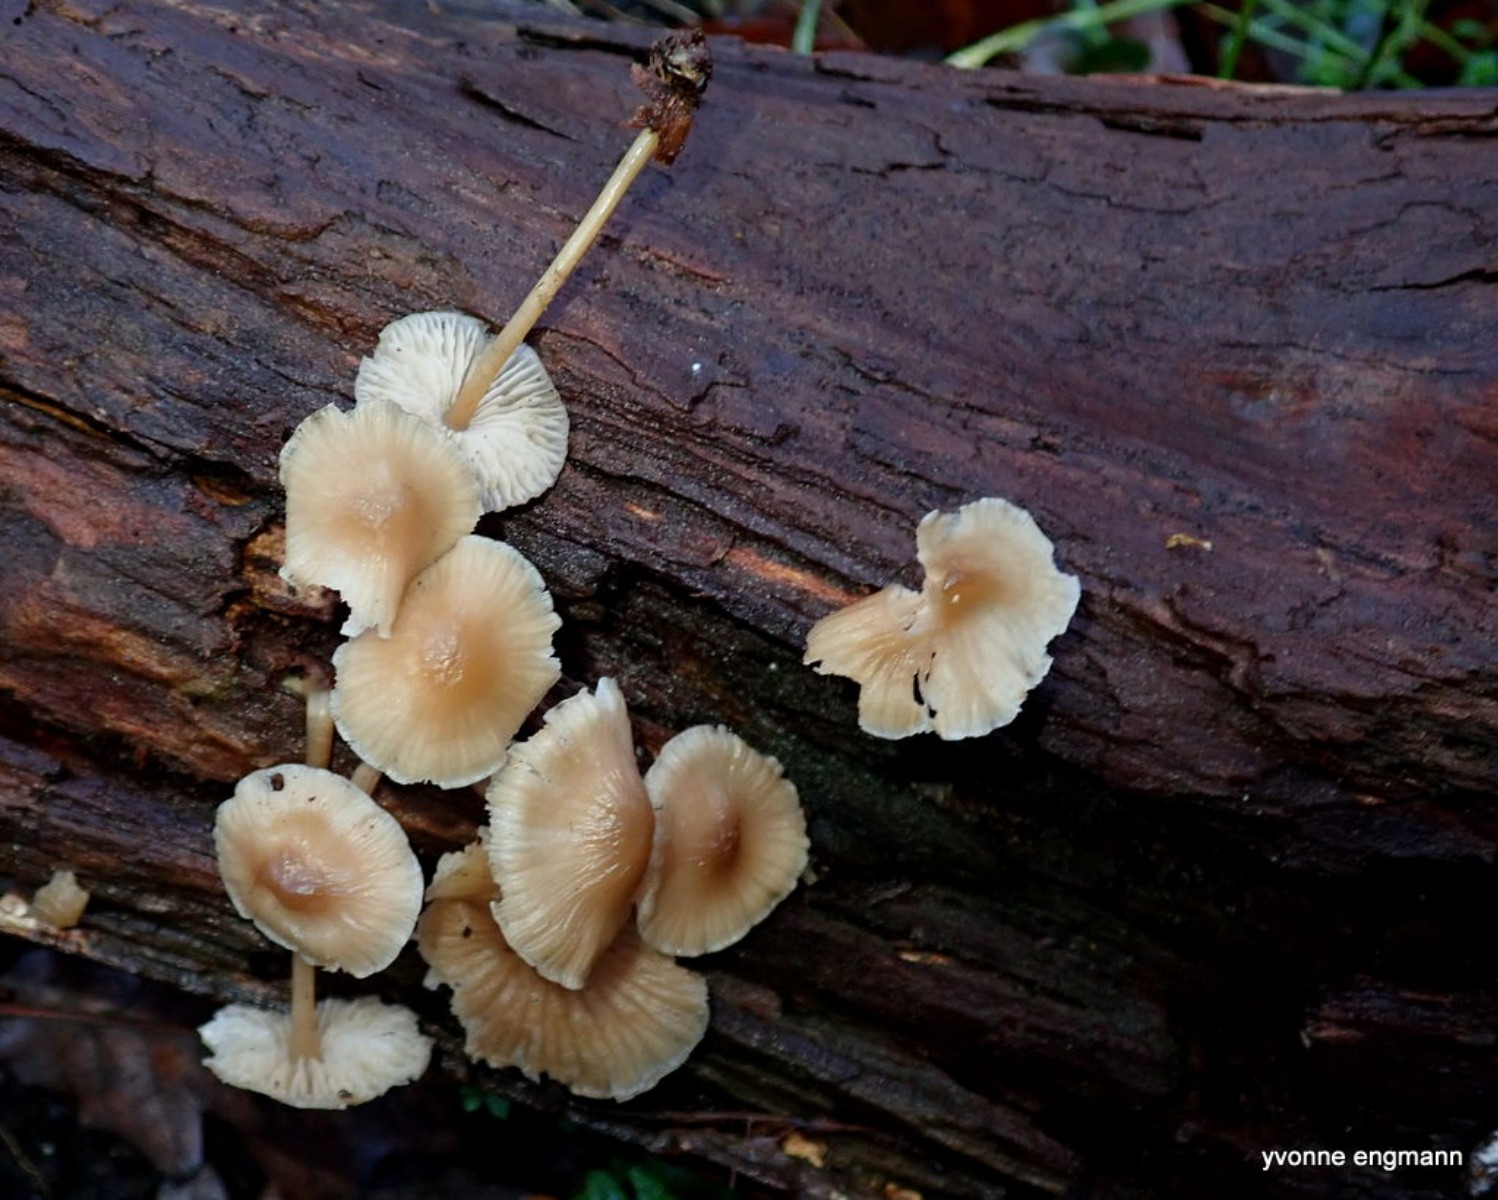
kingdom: Fungi
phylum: Basidiomycota
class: Agaricomycetes
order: Agaricales
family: Mycenaceae
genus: Mycena
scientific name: Mycena galericulata
